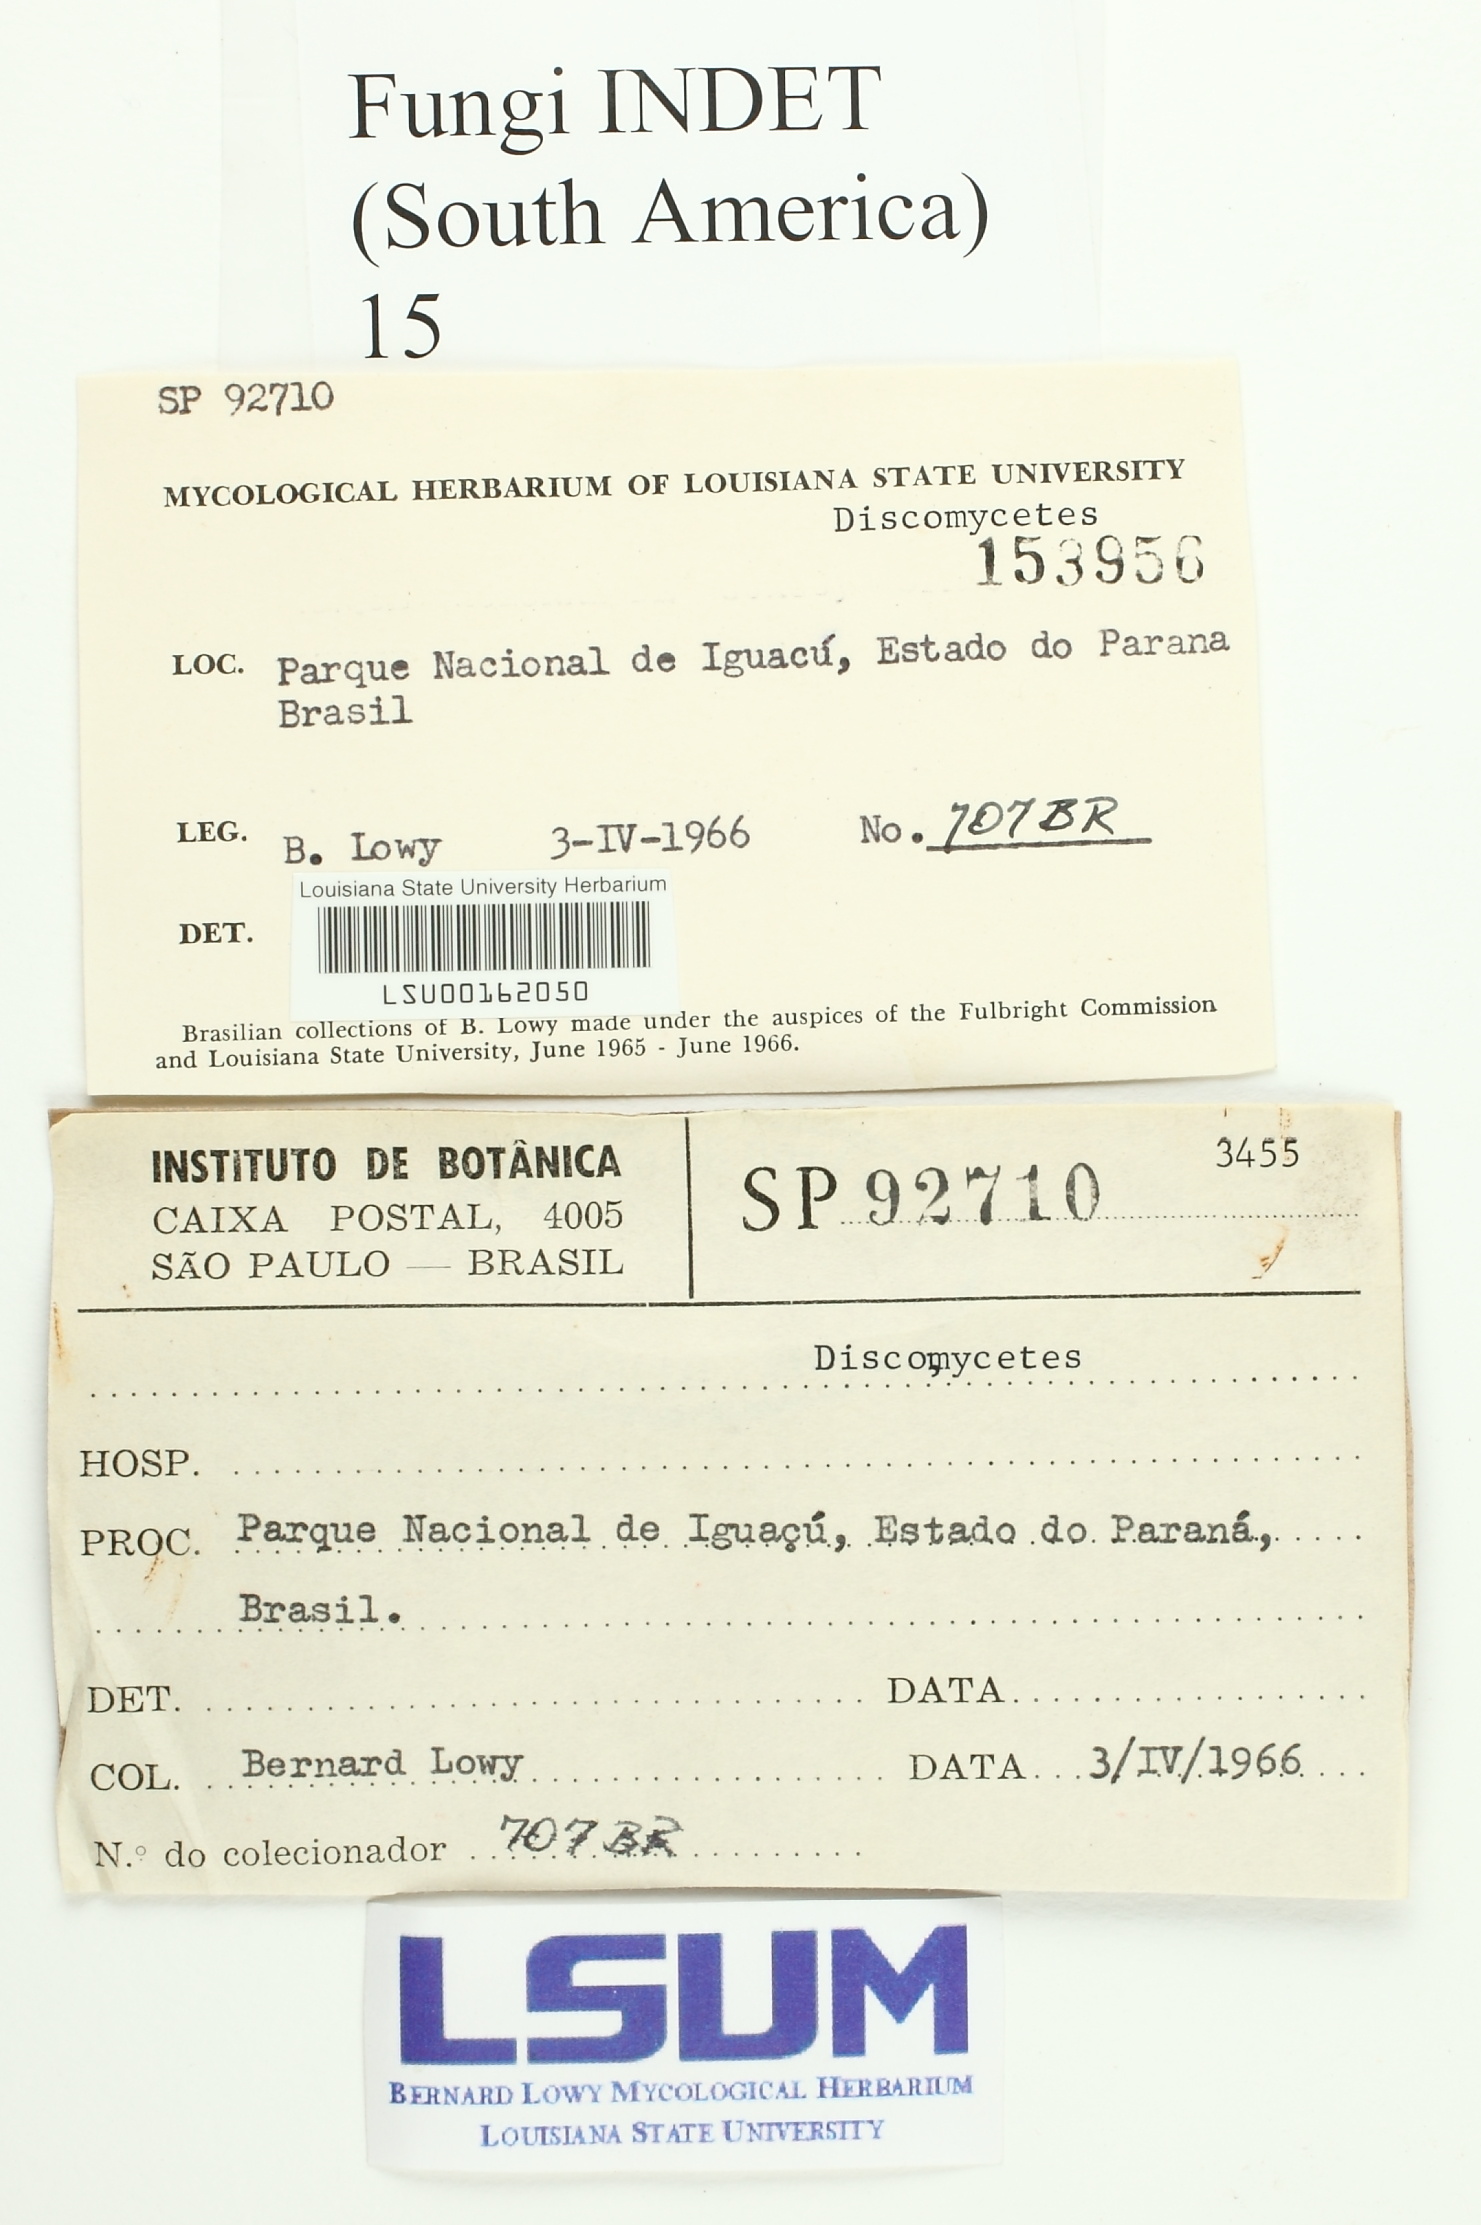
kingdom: Fungi
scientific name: Fungi
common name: Fungi
